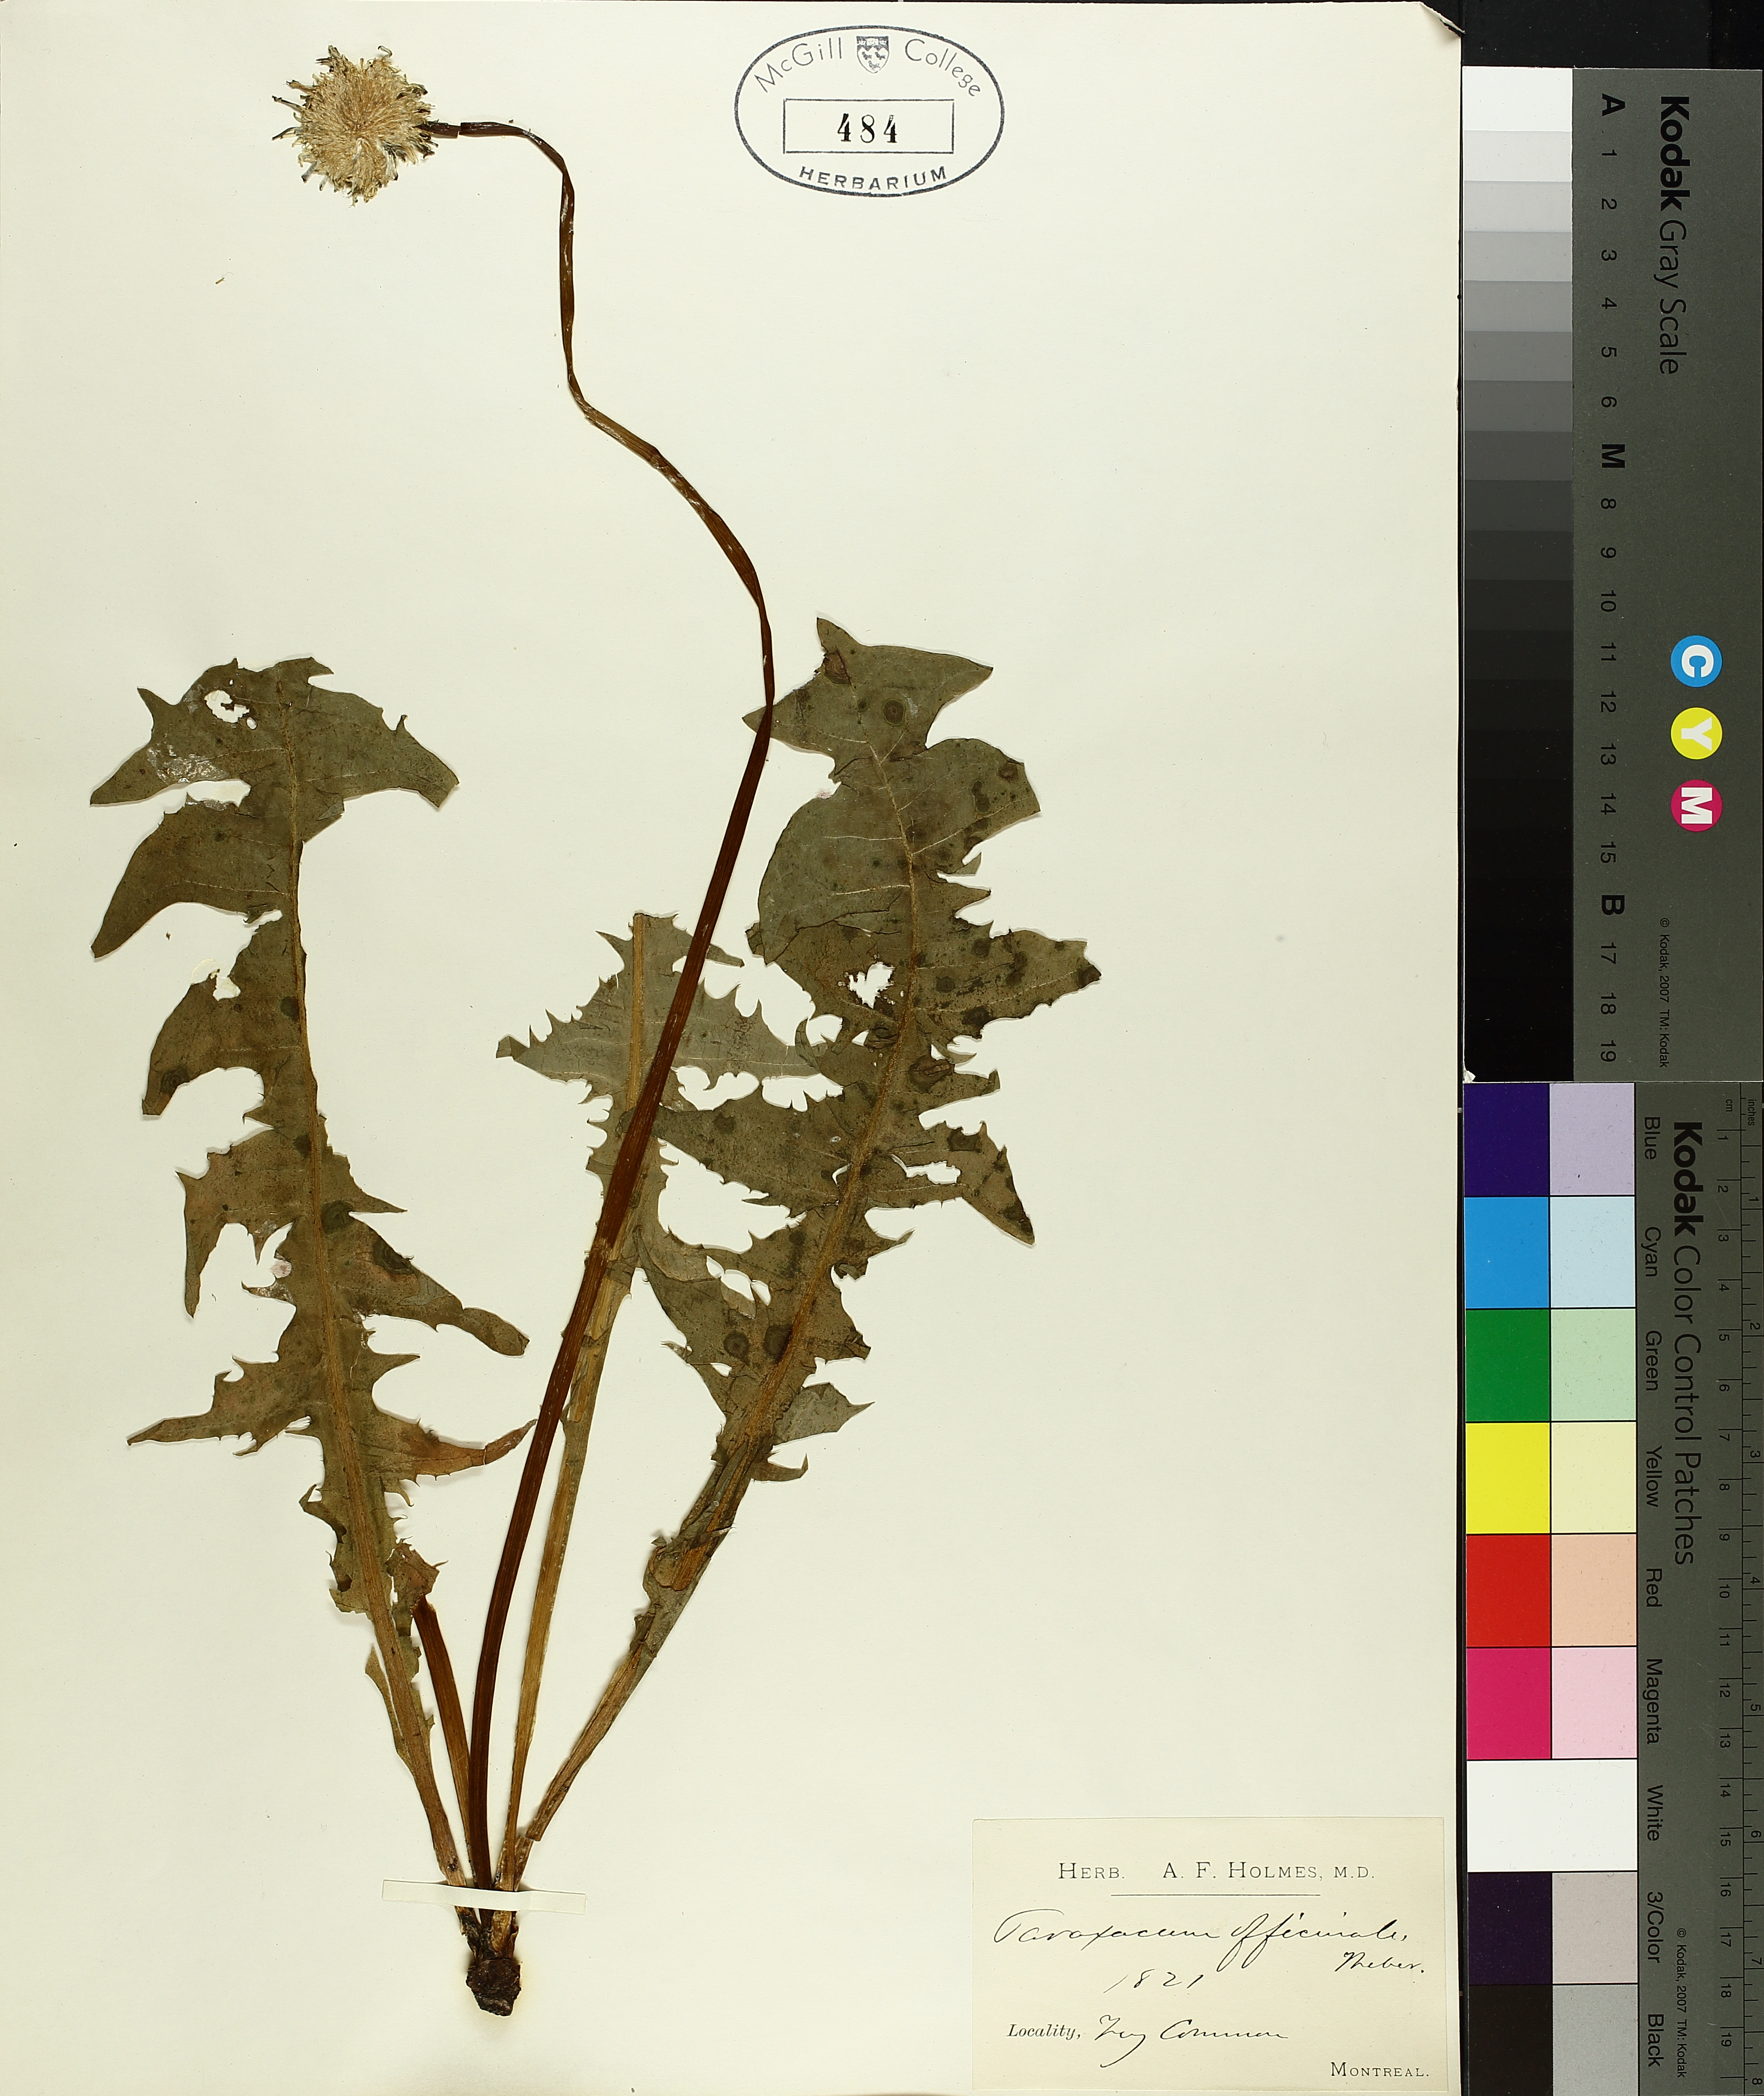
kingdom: Plantae
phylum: Tracheophyta
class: Magnoliopsida
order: Asterales
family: Asteraceae
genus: Taraxacum
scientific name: Taraxacum officinale
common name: Common dandelion
